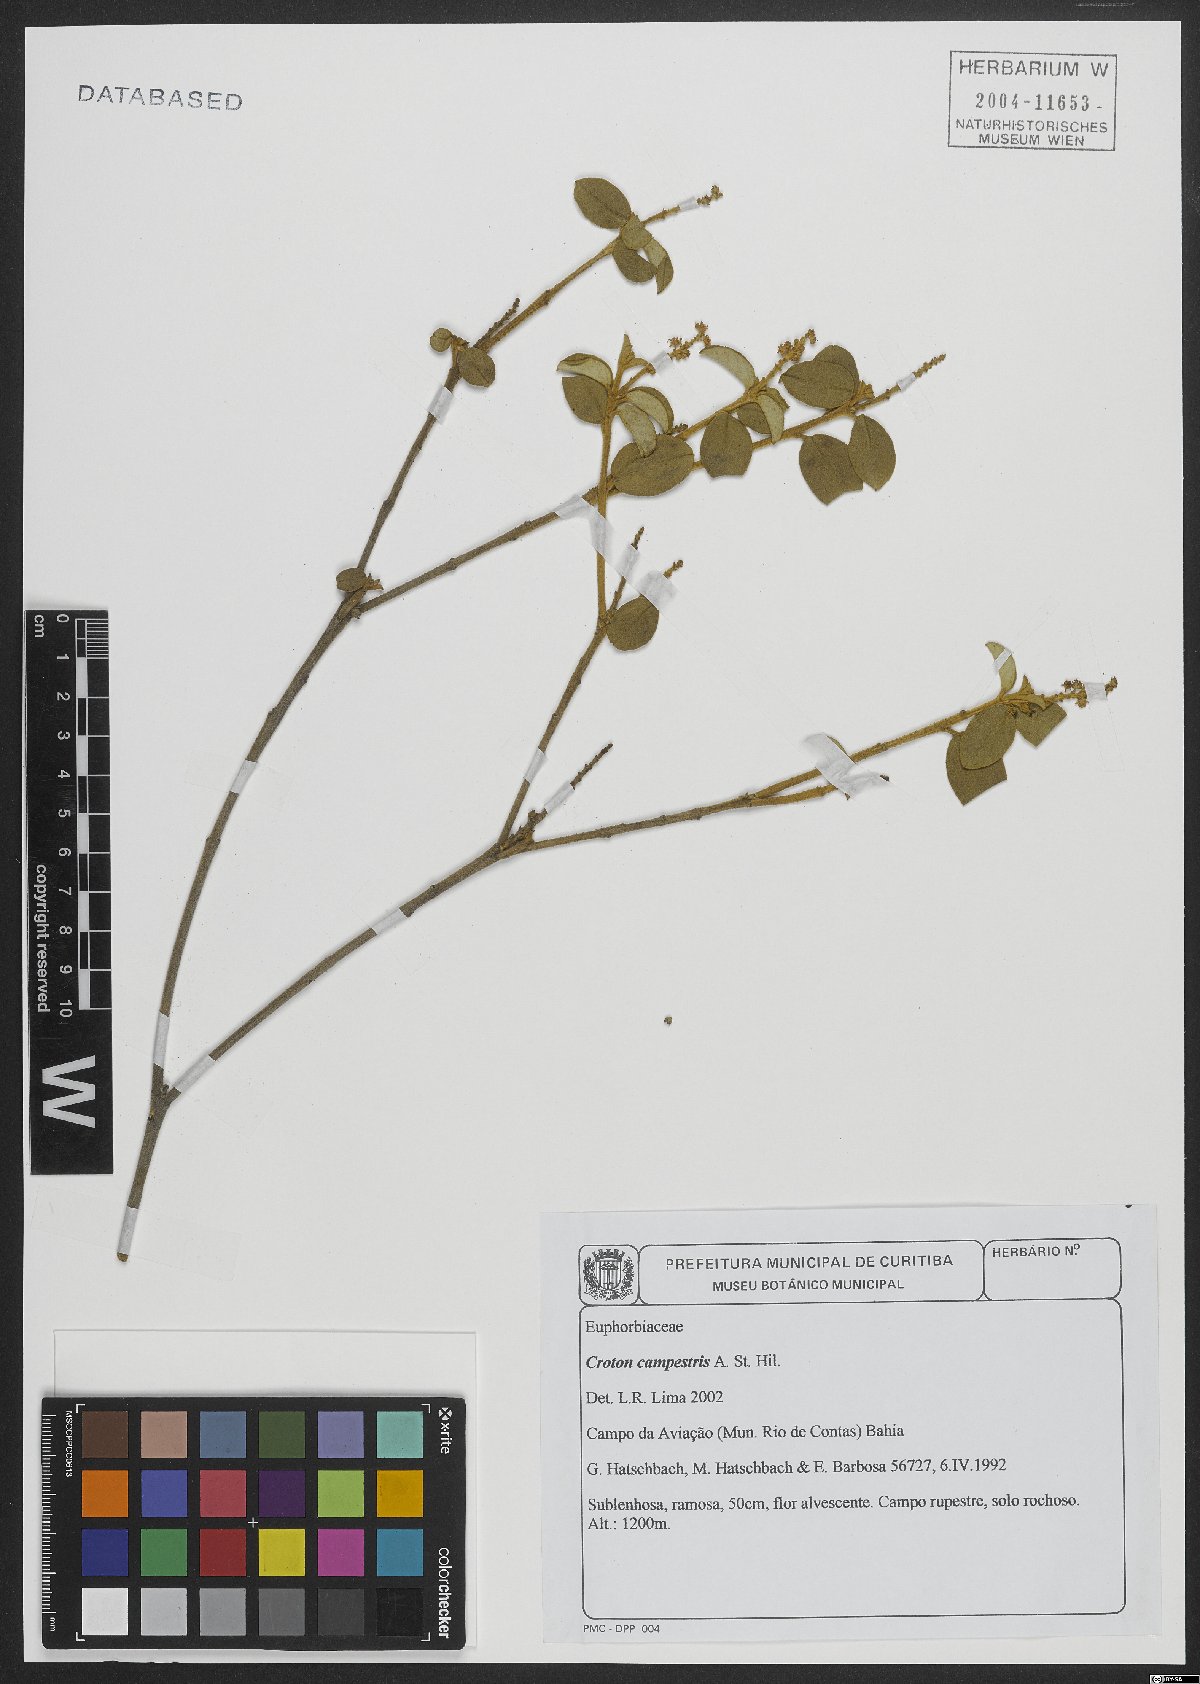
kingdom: Plantae
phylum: Tracheophyta
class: Magnoliopsida
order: Malpighiales
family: Euphorbiaceae
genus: Croton
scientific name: Croton campestris
